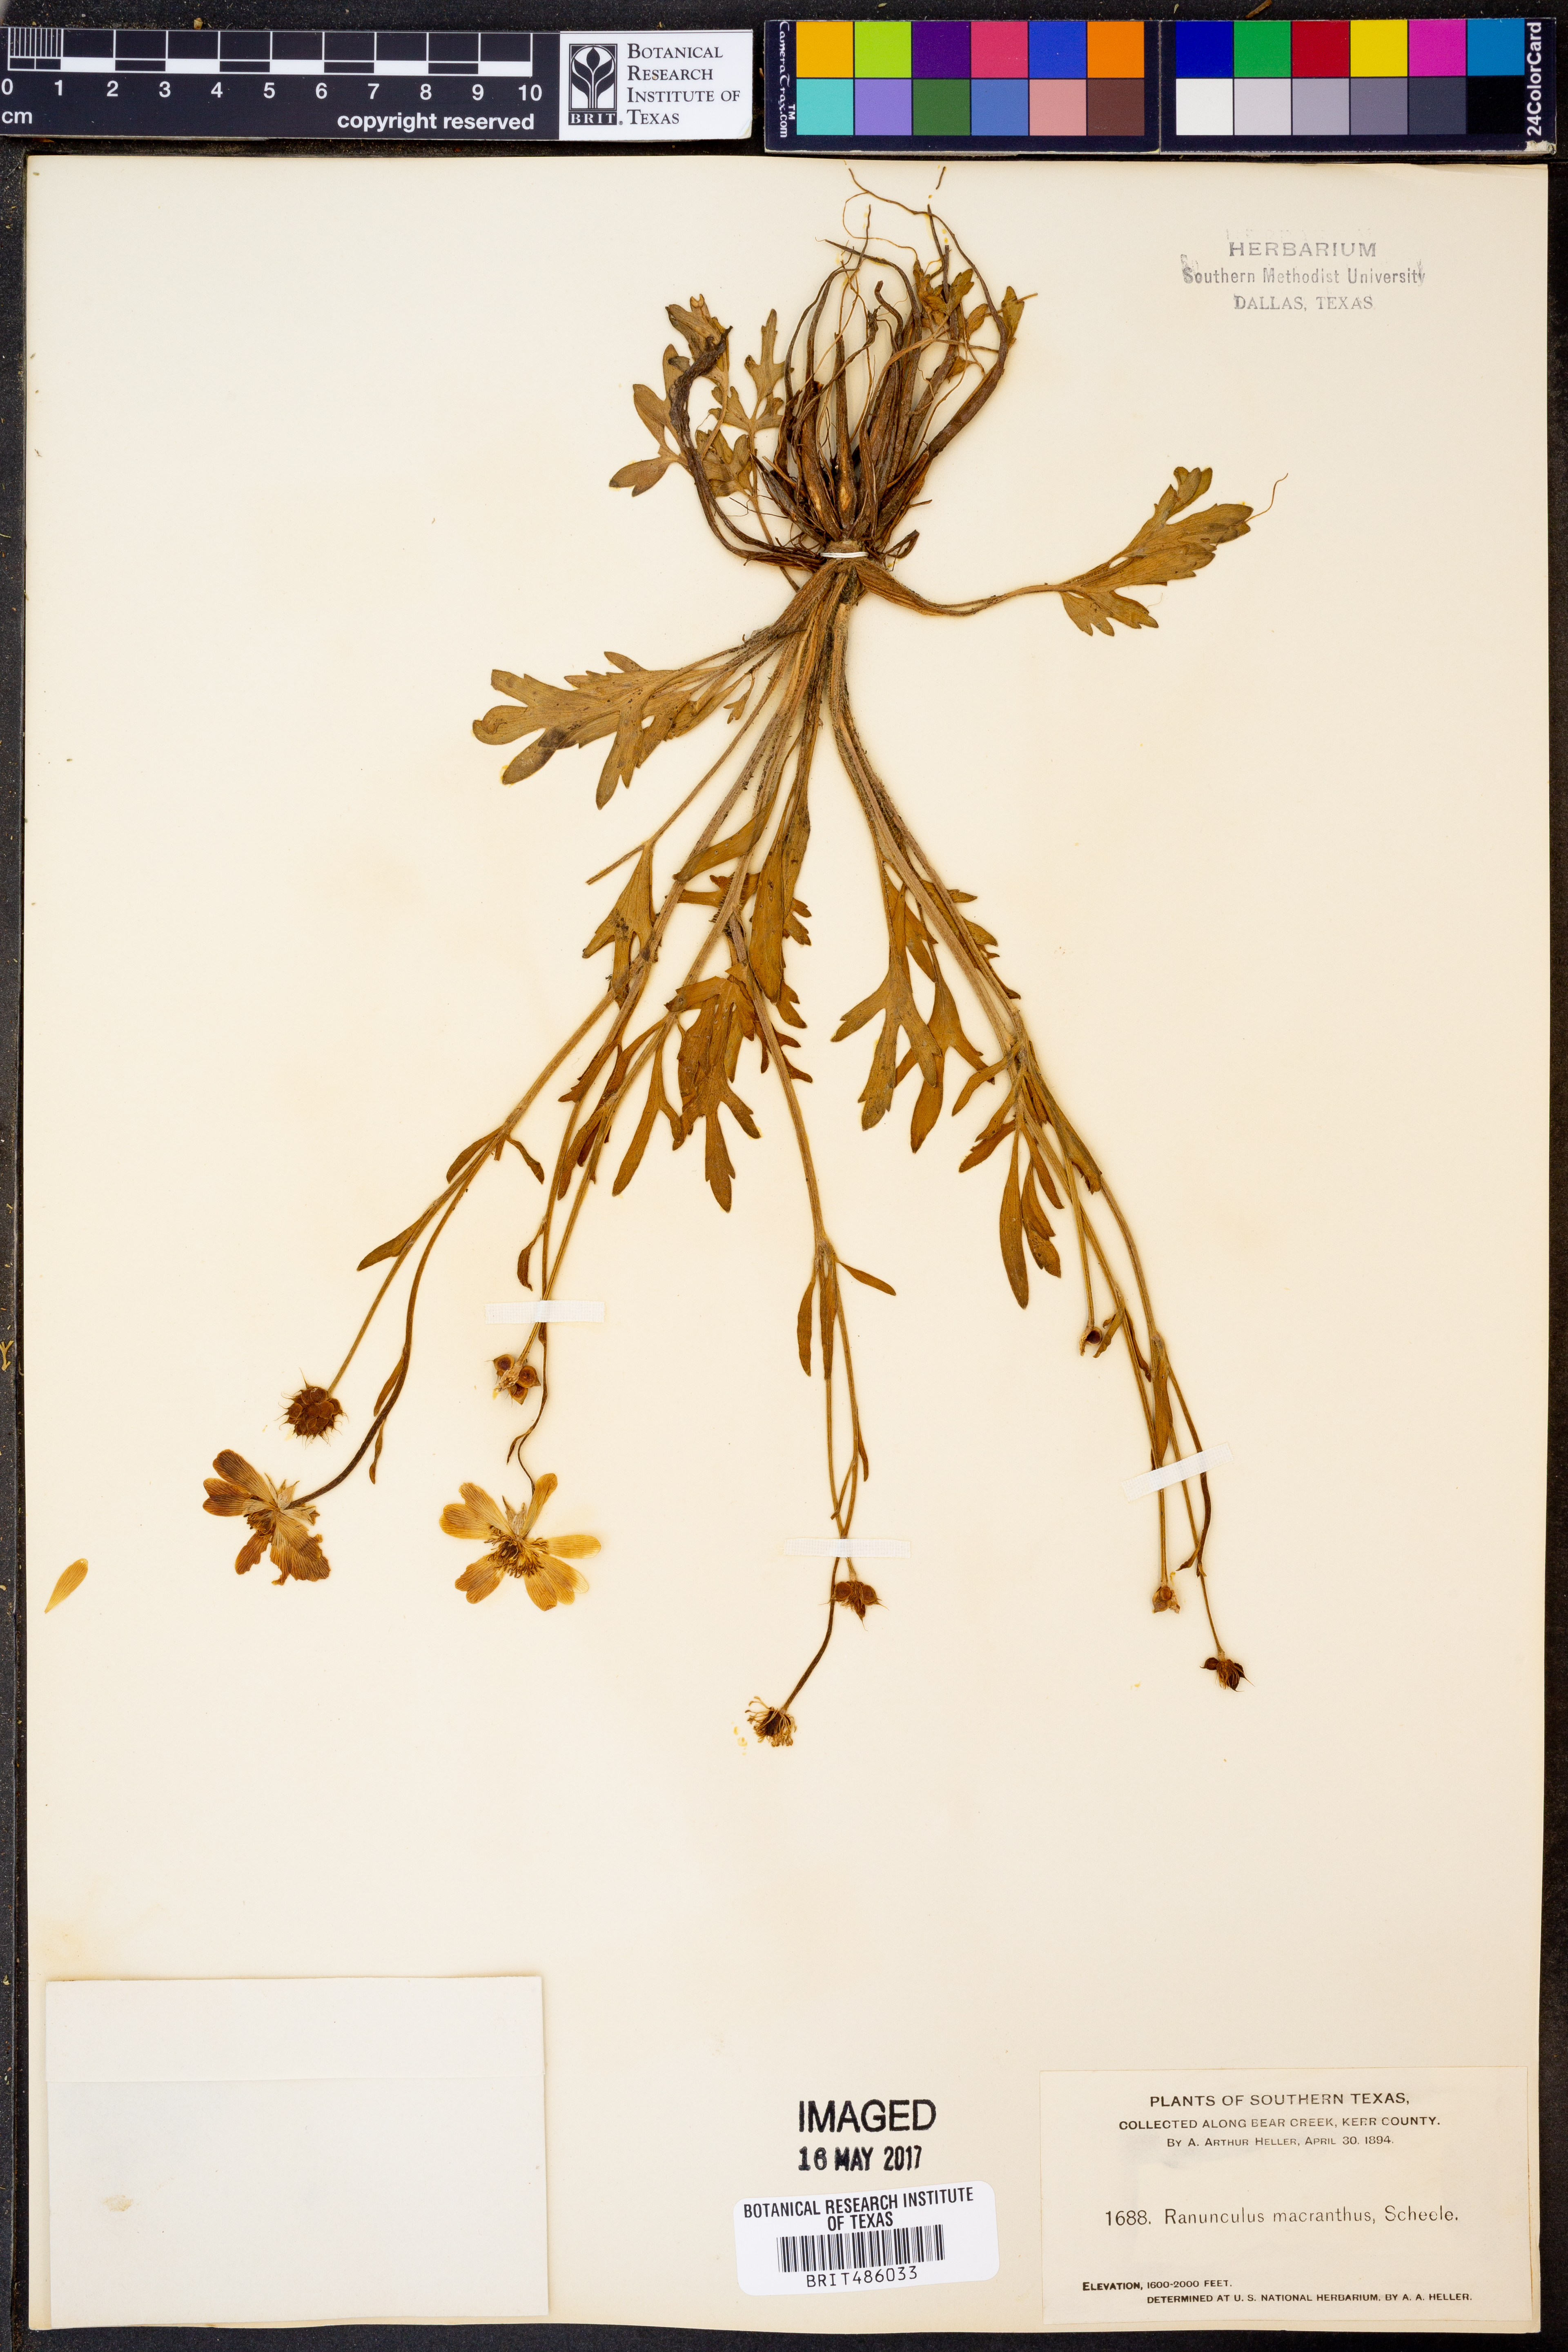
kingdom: Plantae
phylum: Tracheophyta
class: Magnoliopsida
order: Ranunculales
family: Ranunculaceae
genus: Ranunculus
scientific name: Ranunculus macranthus
